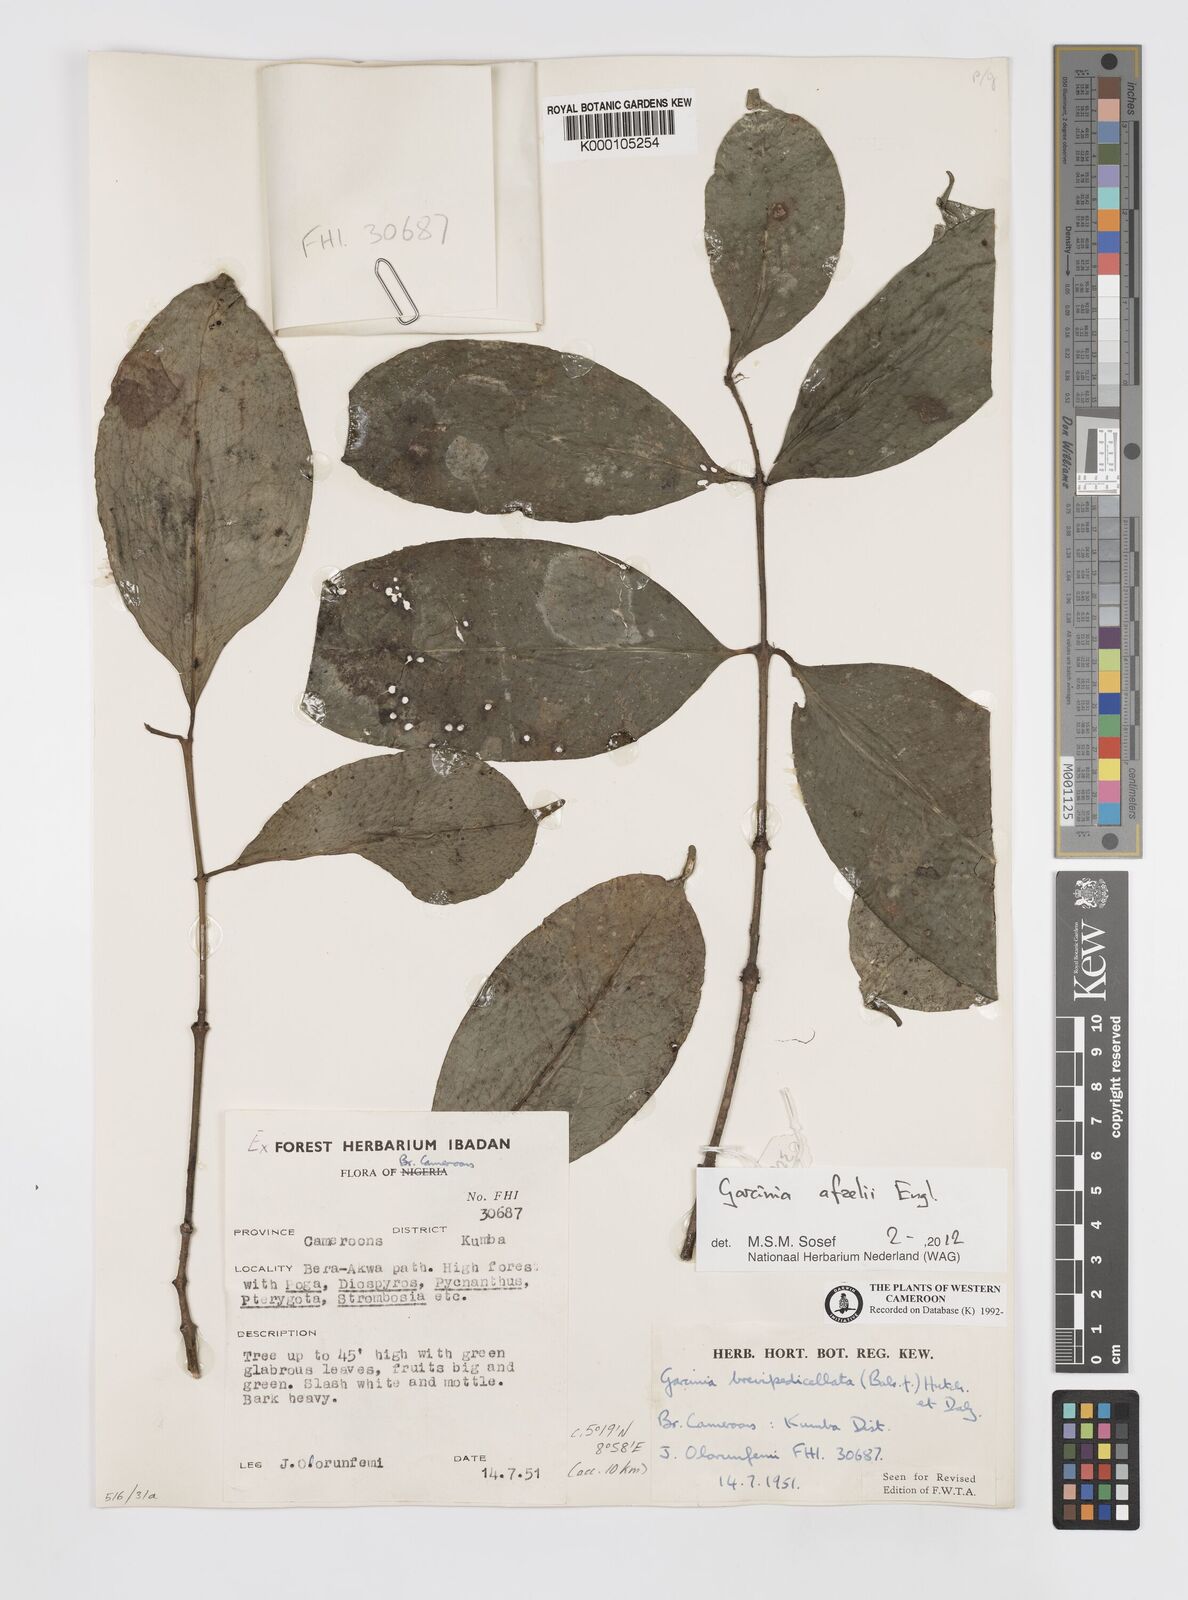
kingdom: Plantae
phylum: Tracheophyta
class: Magnoliopsida
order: Malpighiales
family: Clusiaceae
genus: Garcinia
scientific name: Garcinia brevipedicellata
